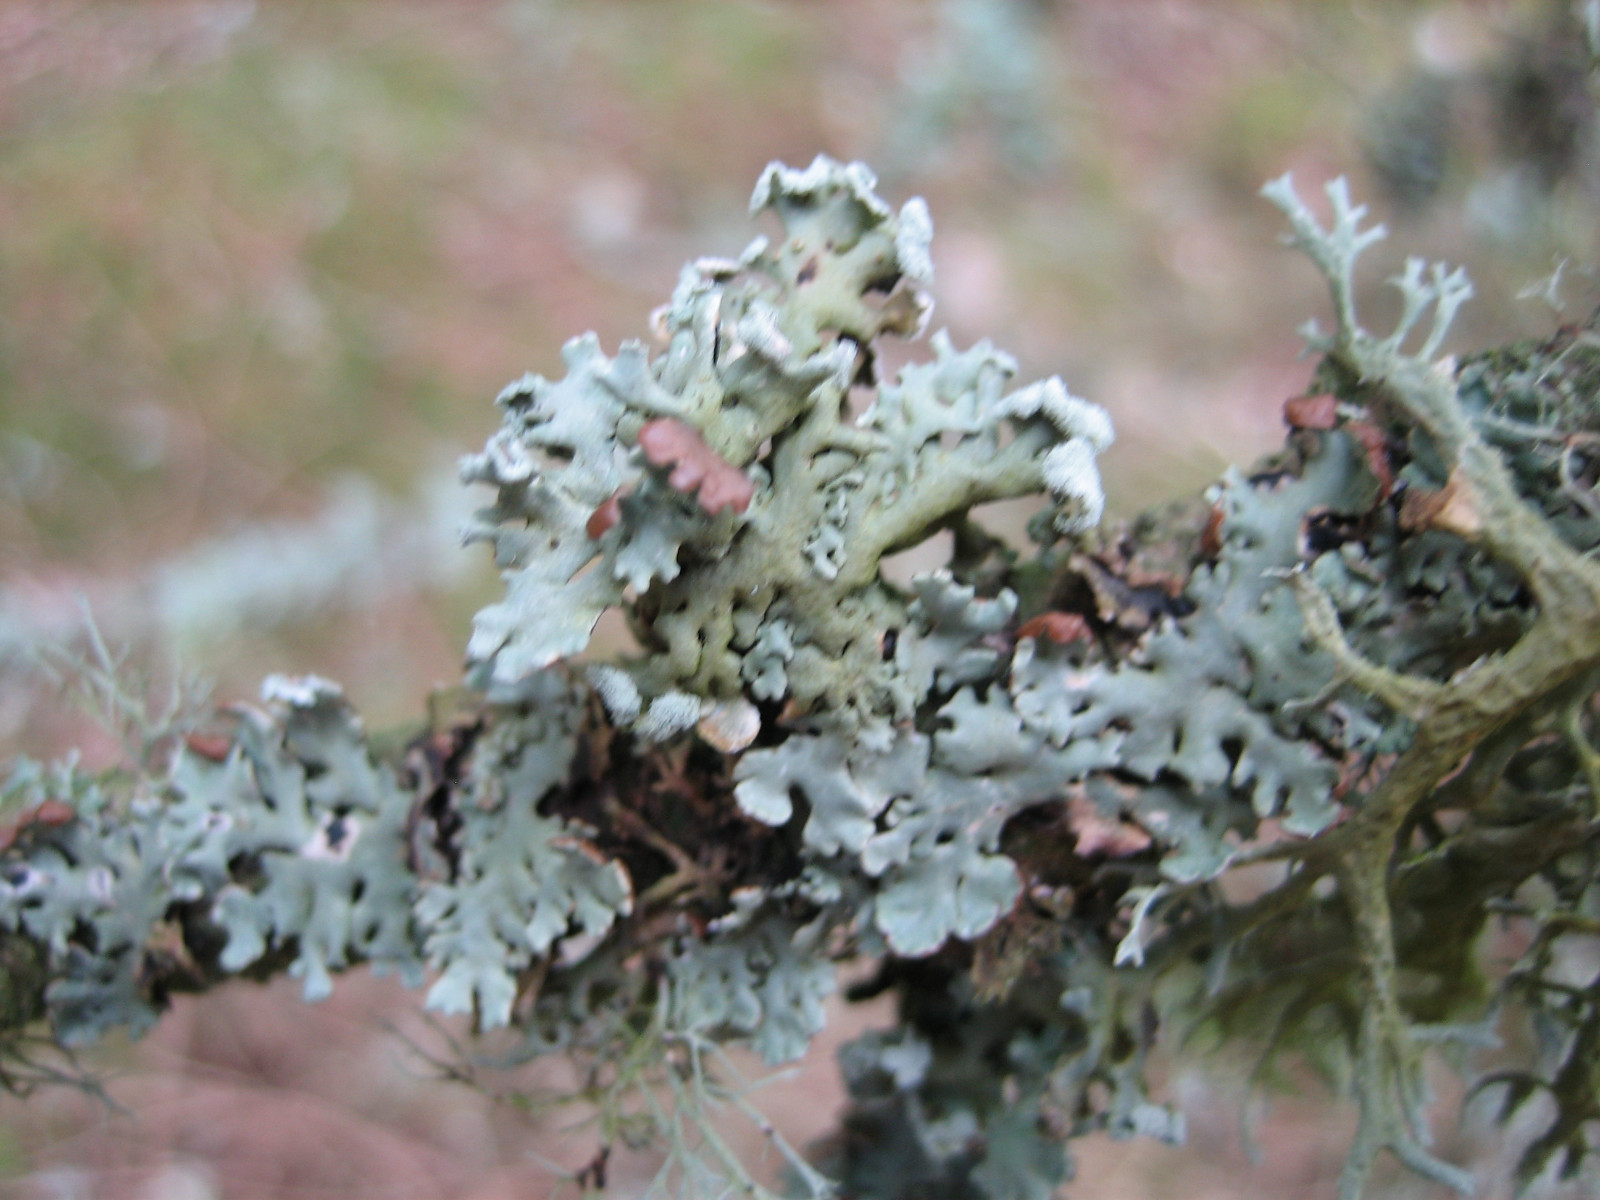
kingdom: Fungi
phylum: Ascomycota
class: Lecanoromycetes
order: Lecanorales
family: Parmeliaceae
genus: Hypogymnia
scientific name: Hypogymnia physodes
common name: almindelig kvistlav
